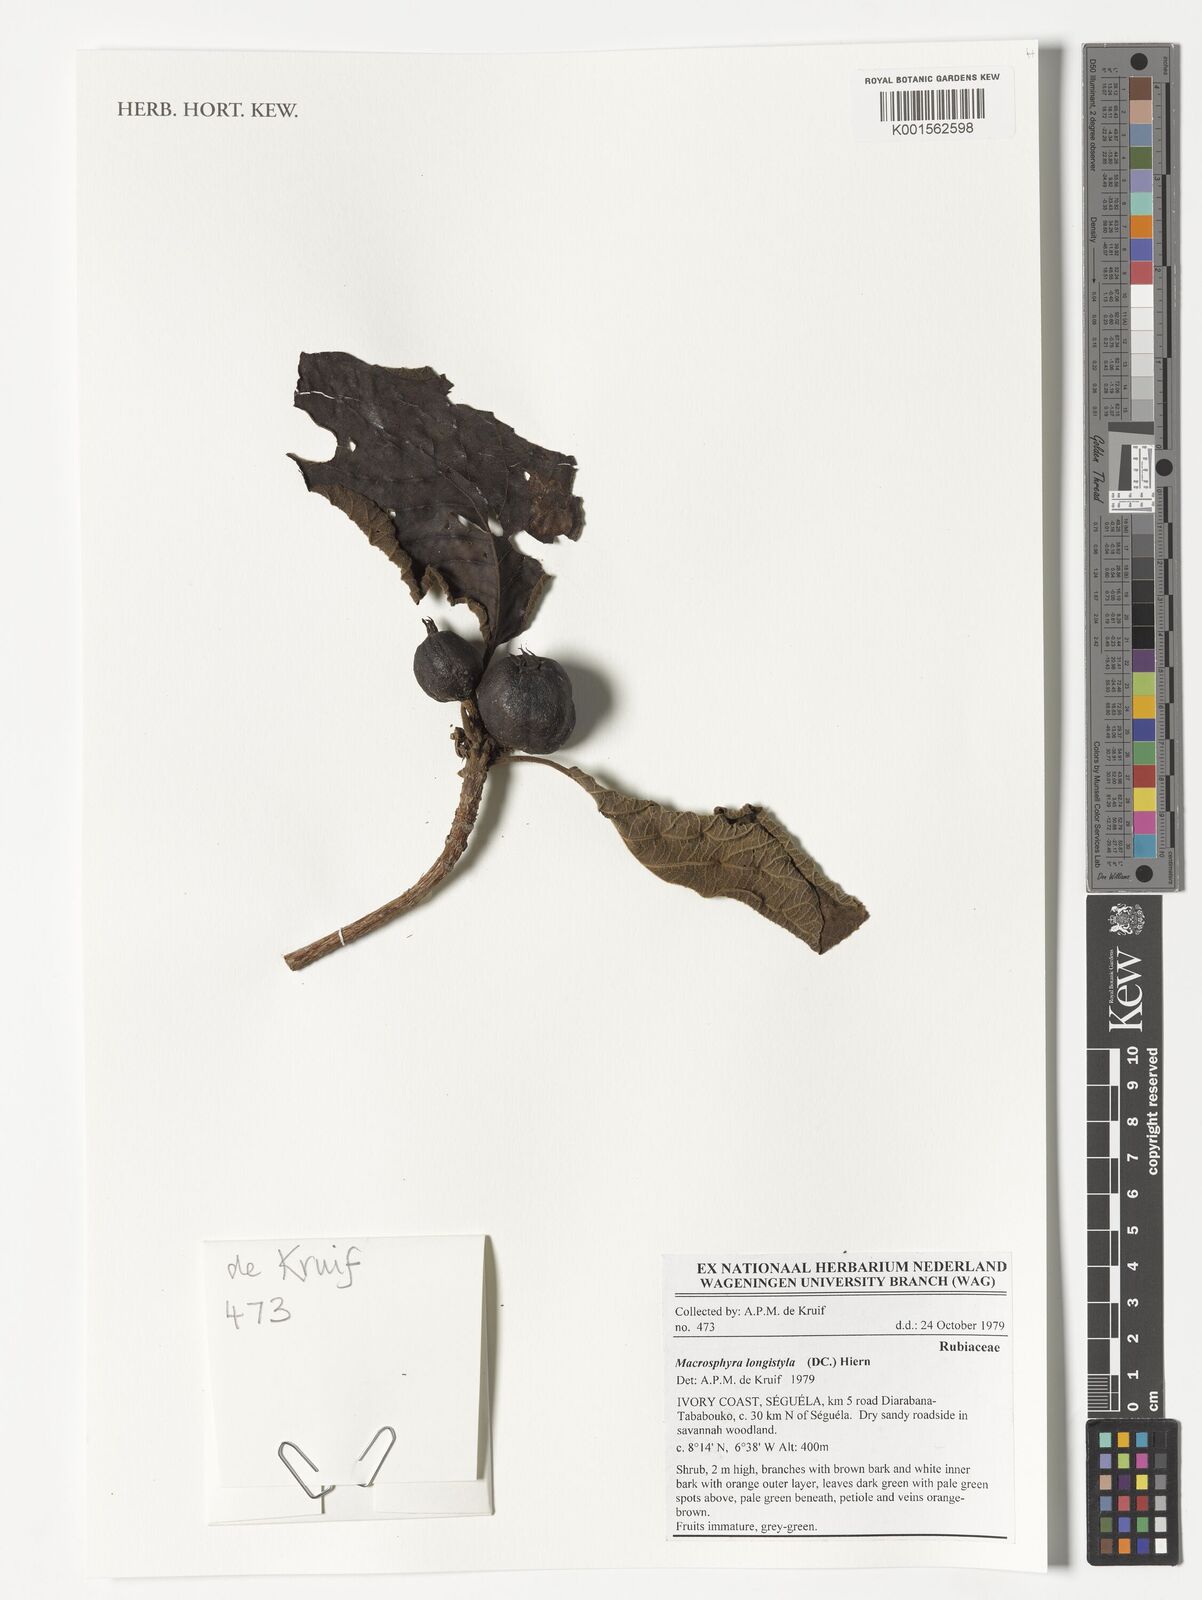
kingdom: Plantae
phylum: Tracheophyta
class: Magnoliopsida
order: Gentianales
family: Rubiaceae
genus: Macrosphyra
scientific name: Macrosphyra longistyla
